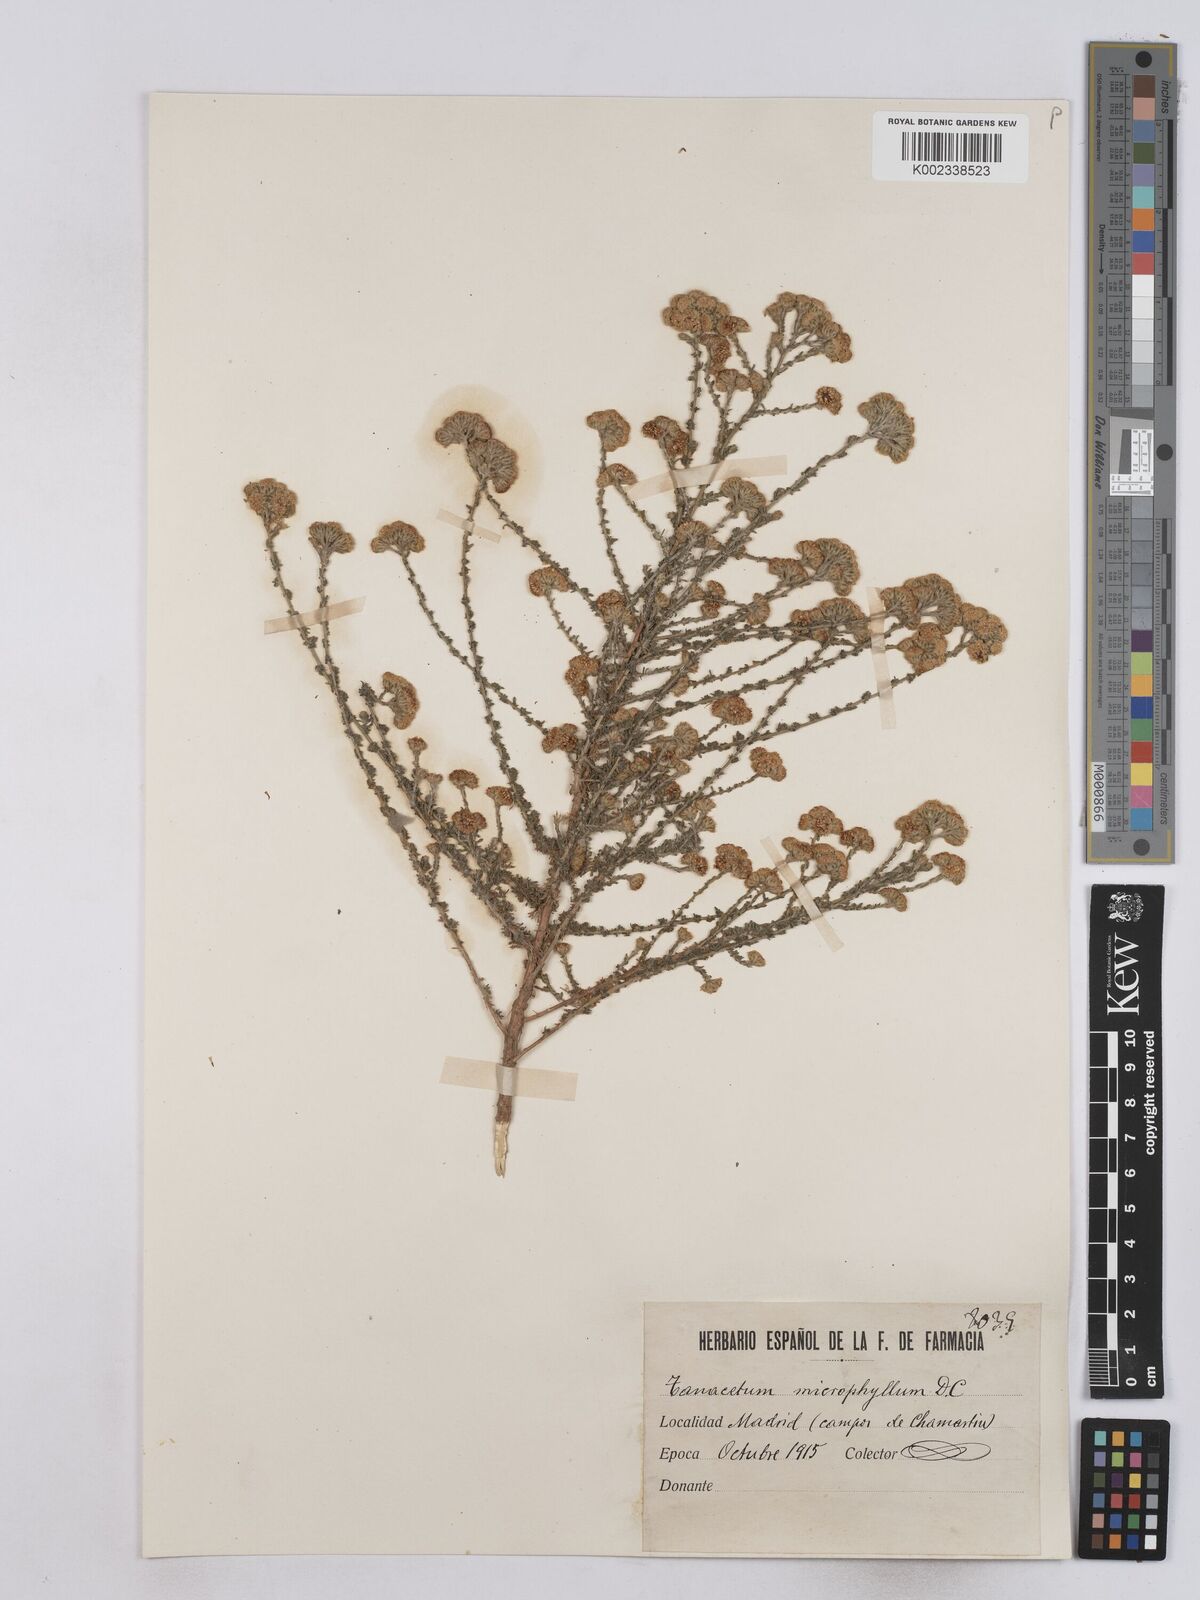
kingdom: Plantae
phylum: Tracheophyta
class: Magnoliopsida
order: Asterales
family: Asteraceae
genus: Vogtia
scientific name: Vogtia microphylla
